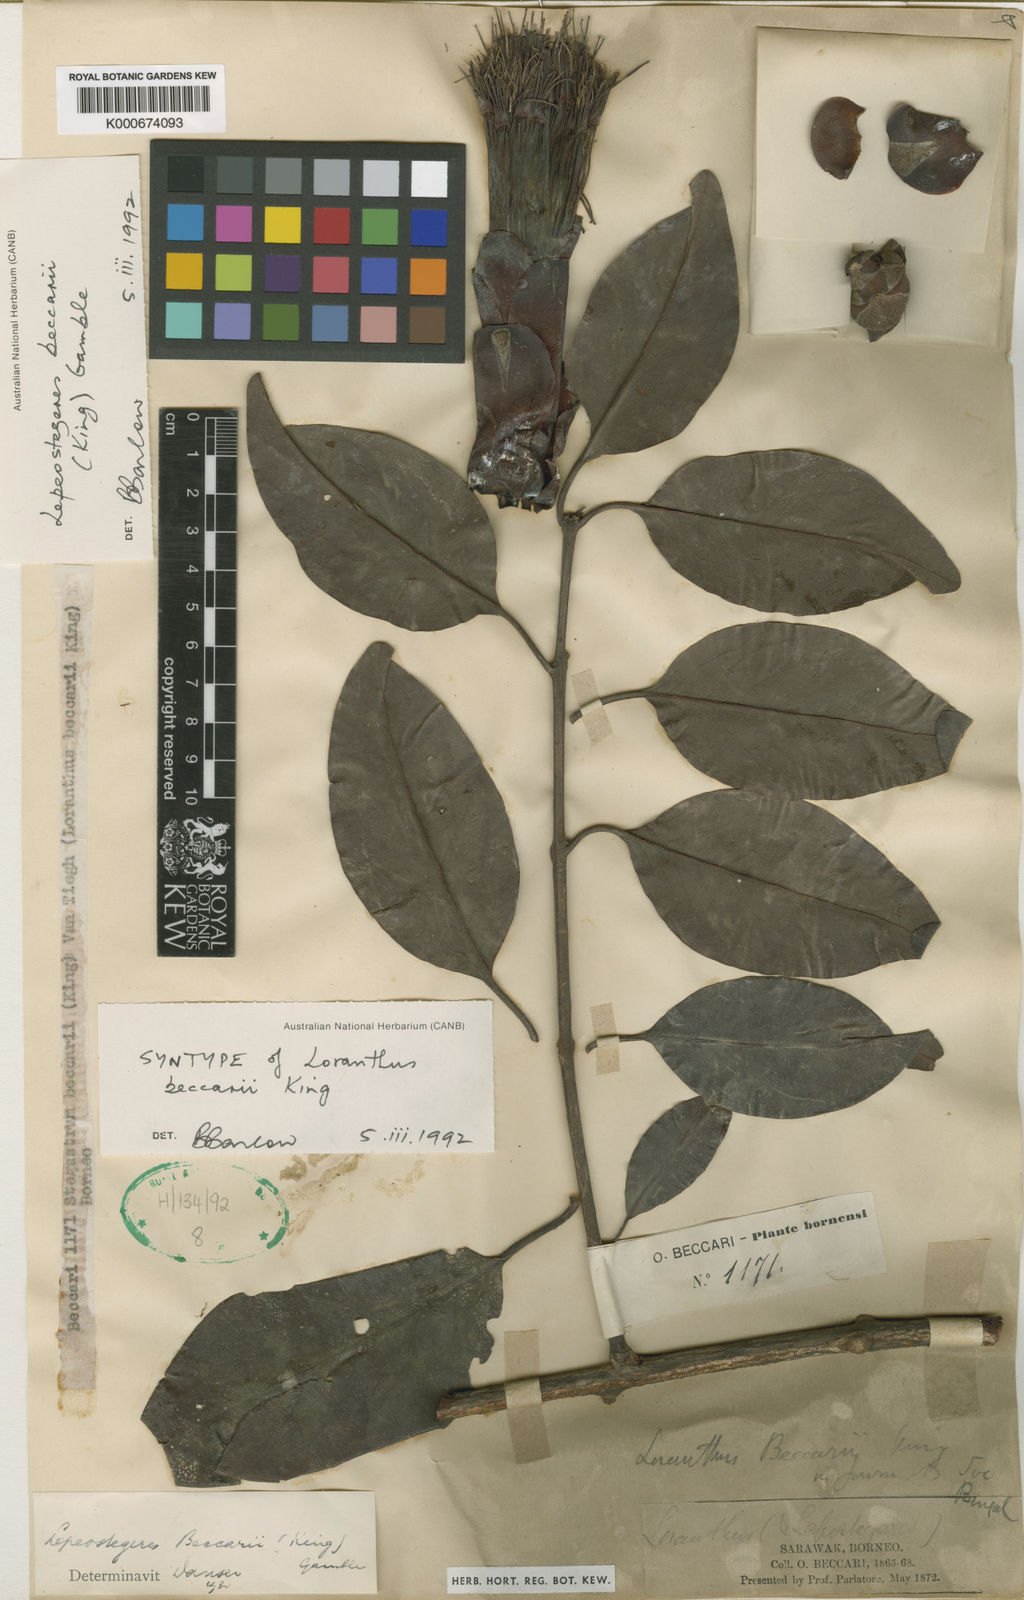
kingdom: Plantae
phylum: Tracheophyta
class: Magnoliopsida
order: Santalales
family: Loranthaceae
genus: Lepeostegeres
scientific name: Lepeostegeres beccarii
